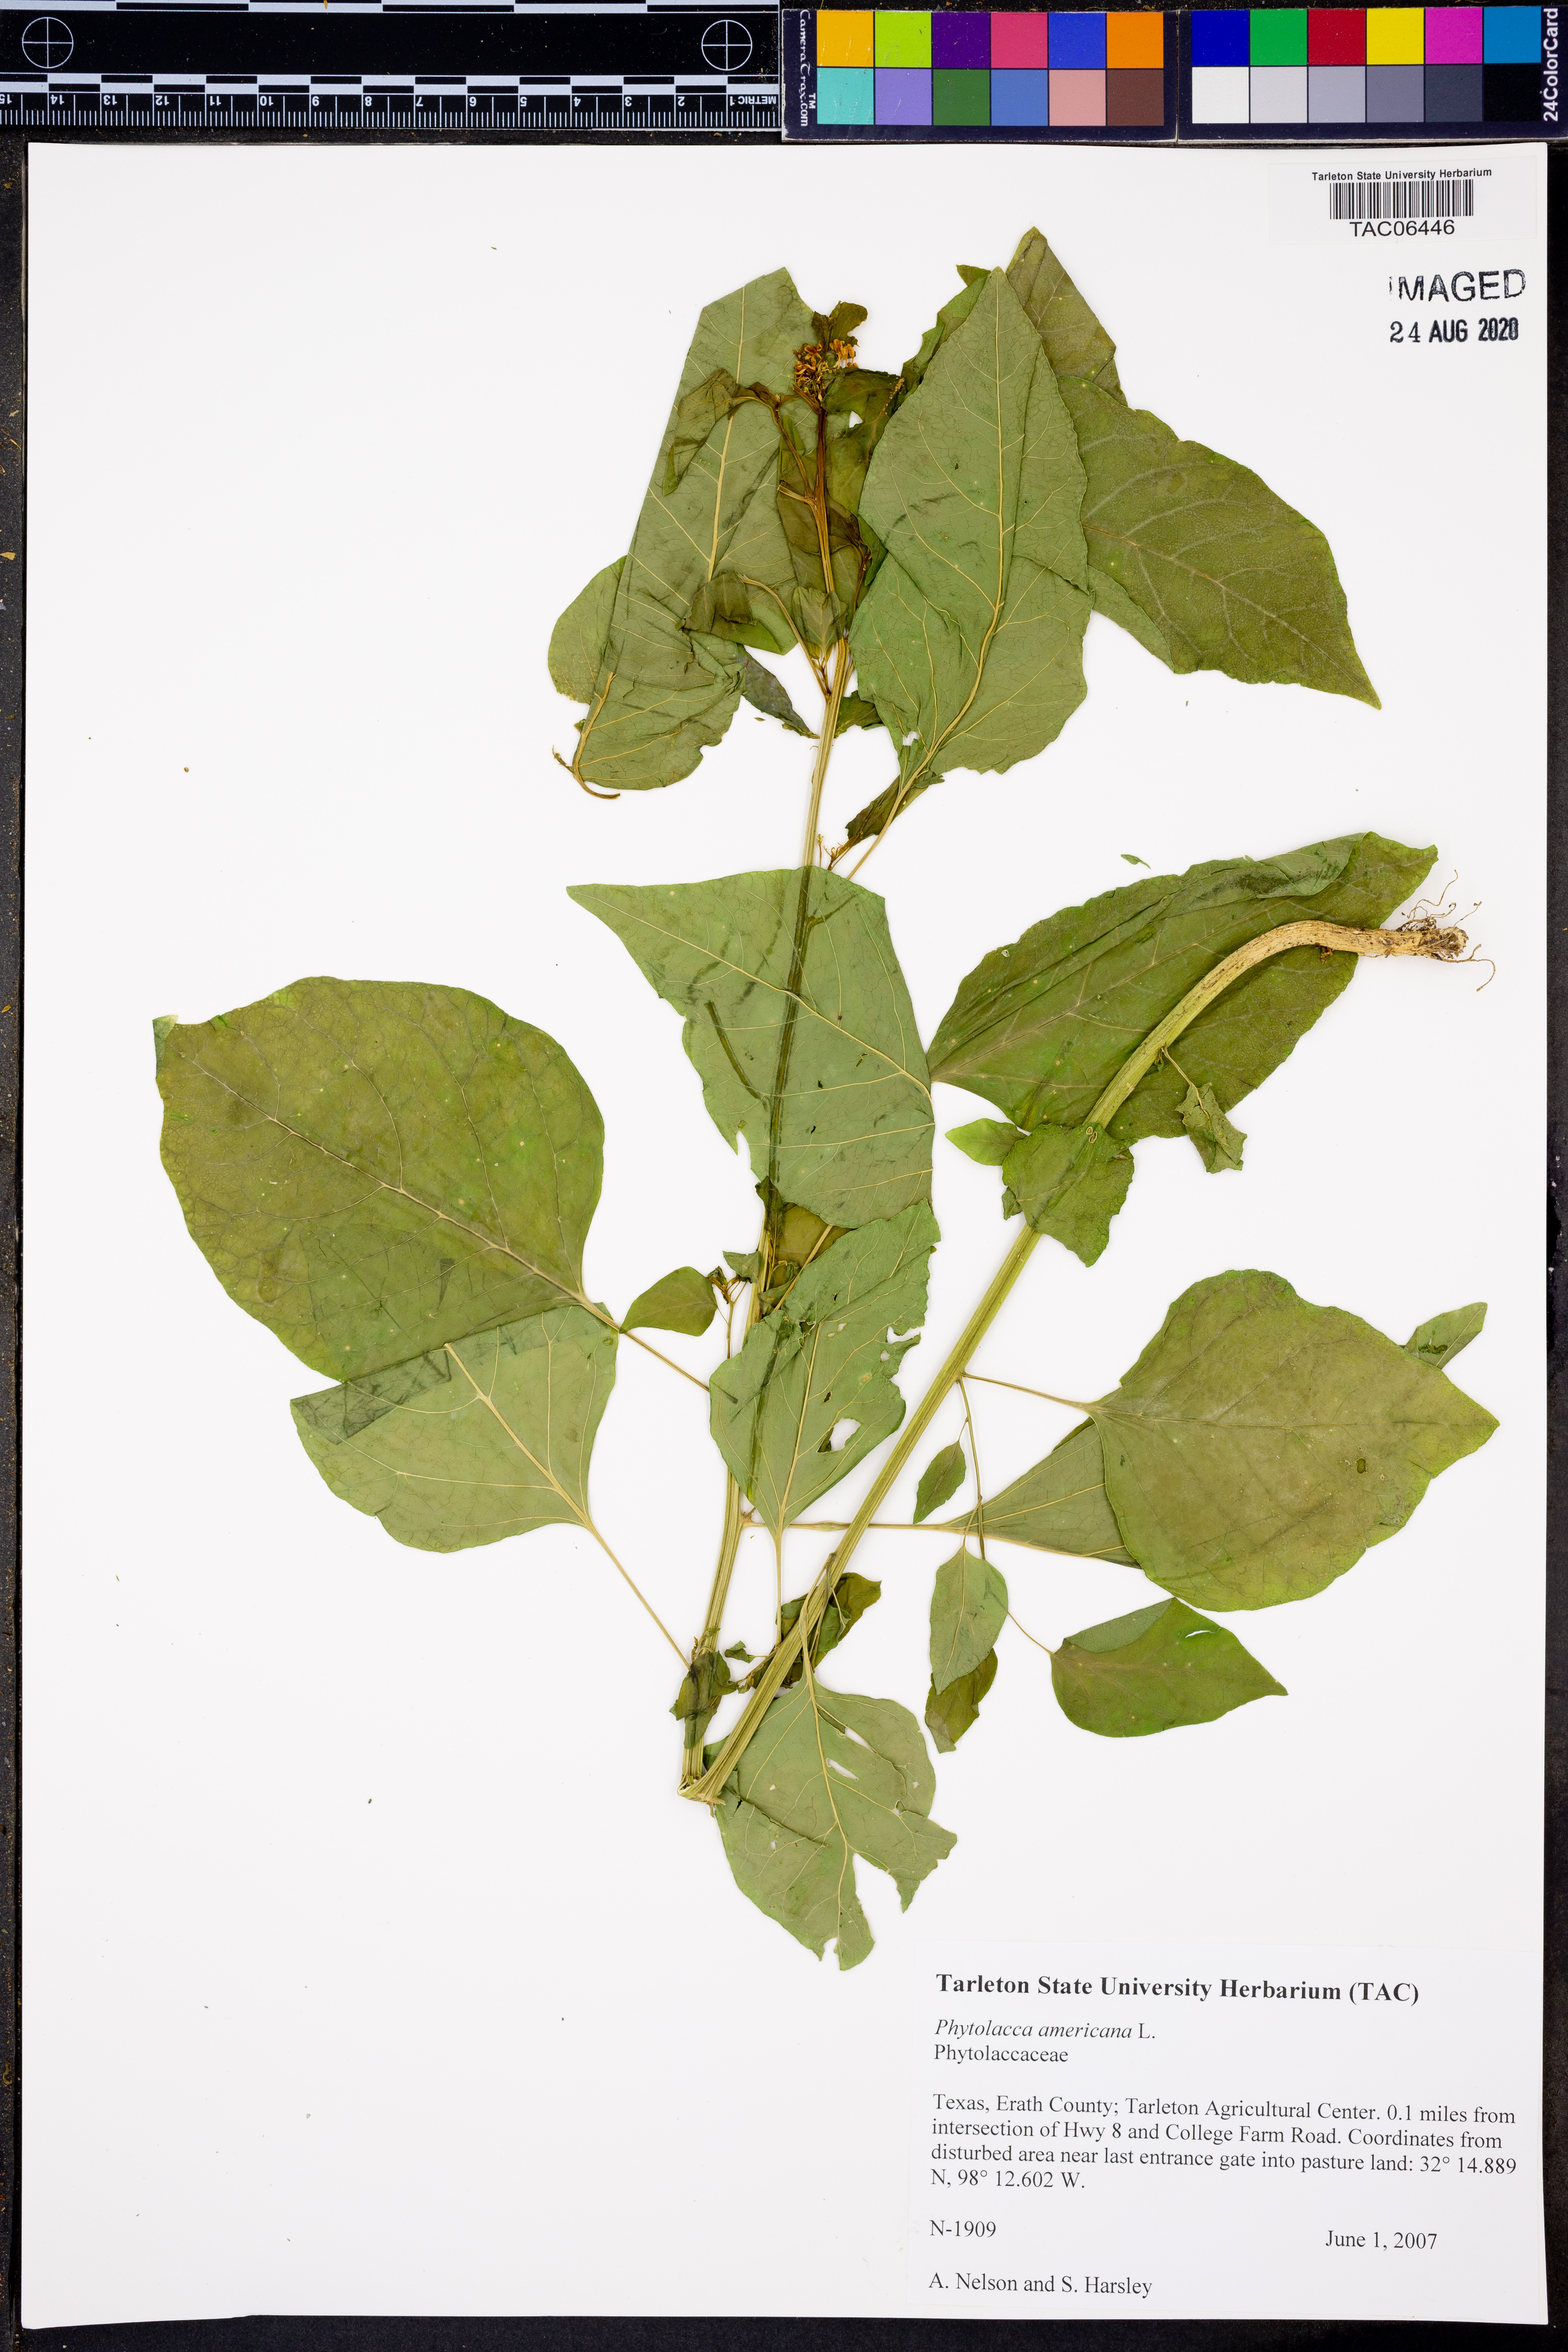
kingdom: Plantae
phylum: Tracheophyta
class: Magnoliopsida
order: Caryophyllales
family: Phytolaccaceae
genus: Phytolacca
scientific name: Phytolacca americana
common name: American pokeweed
